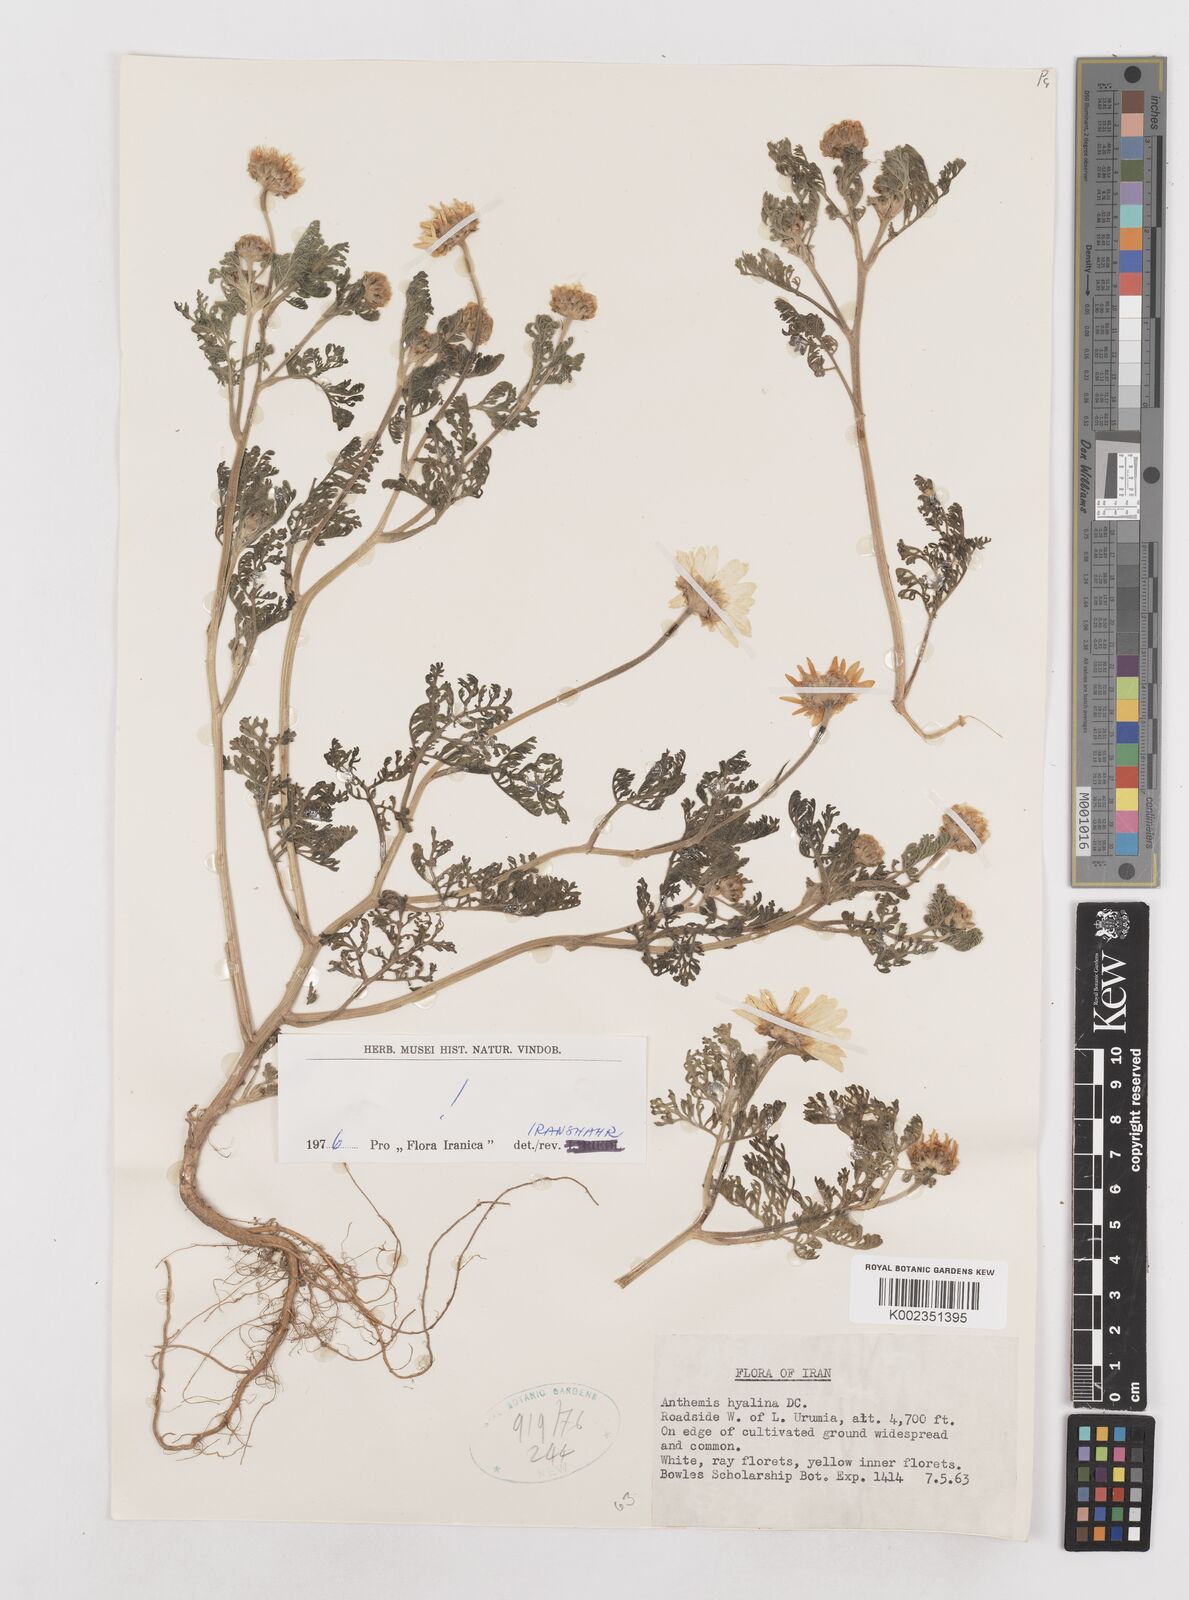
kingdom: Plantae
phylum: Tracheophyta
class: Magnoliopsida
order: Asterales
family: Asteraceae
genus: Anthemis
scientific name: Anthemis hyalina
